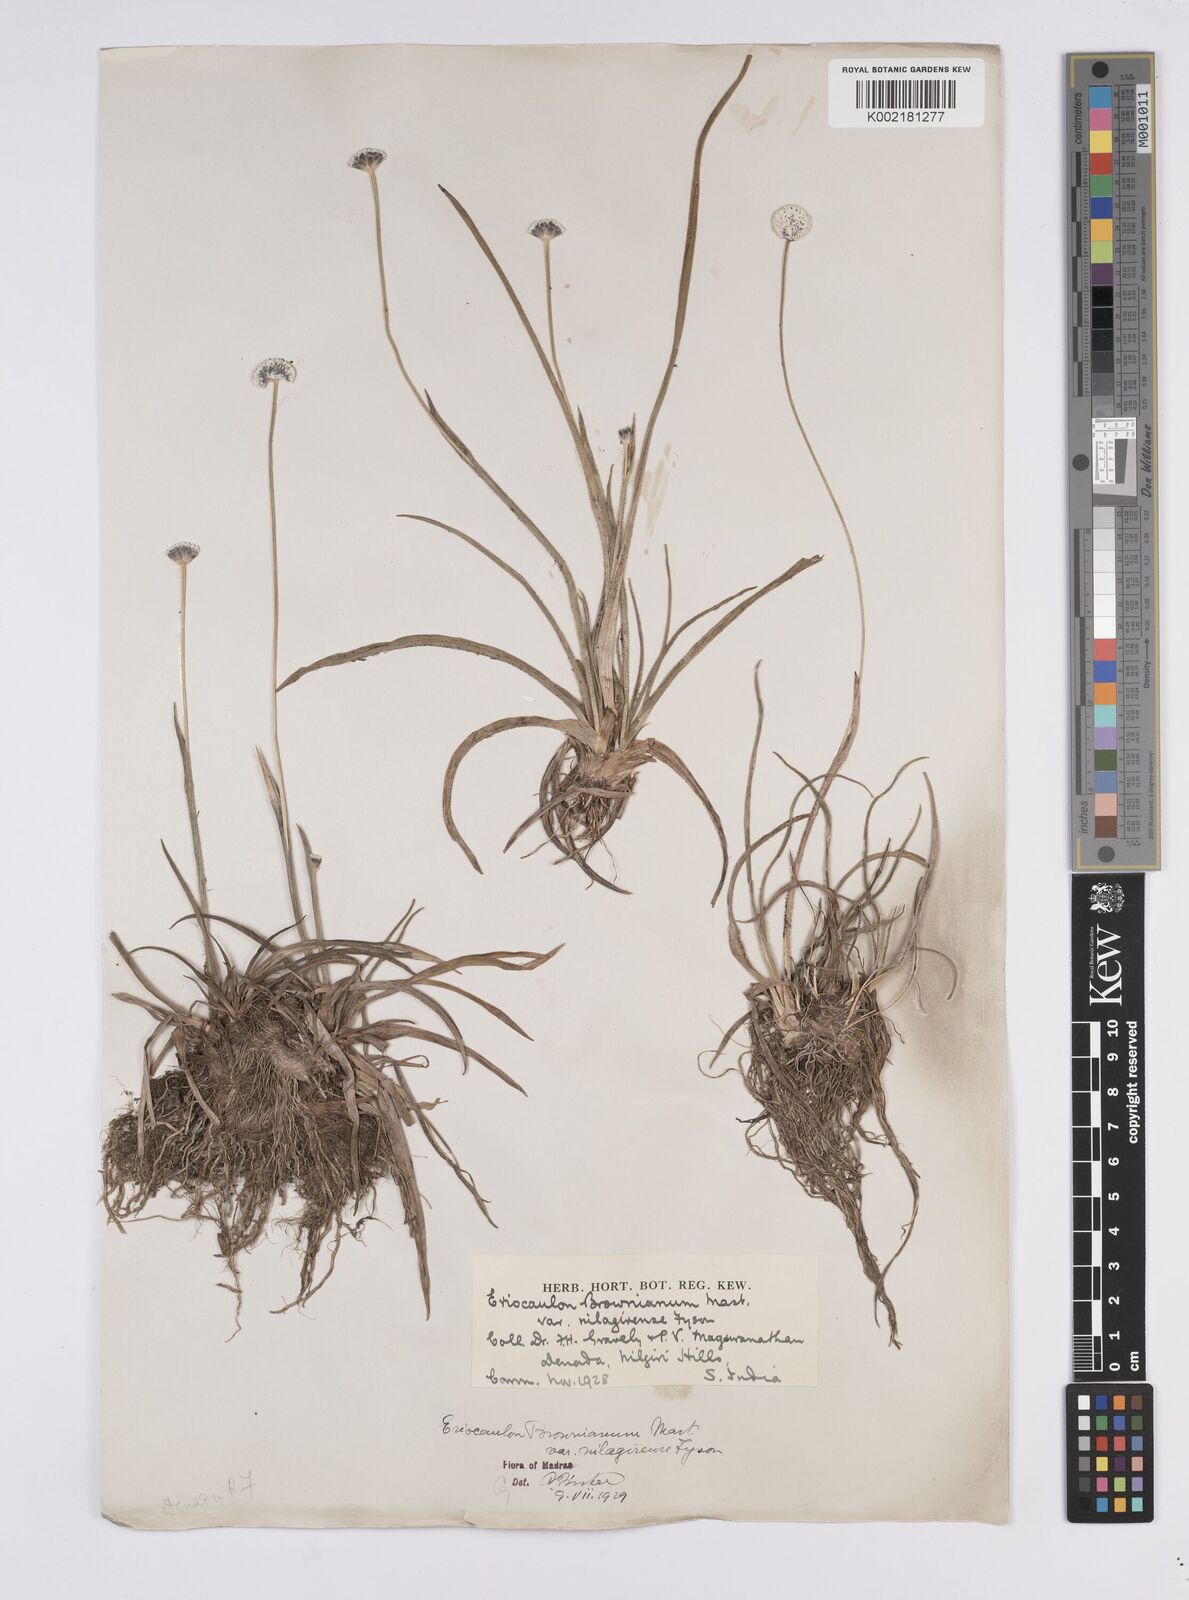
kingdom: Plantae
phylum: Tracheophyta
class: Liliopsida
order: Poales
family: Eriocaulaceae
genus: Eriocaulon
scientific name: Eriocaulon brownianum
